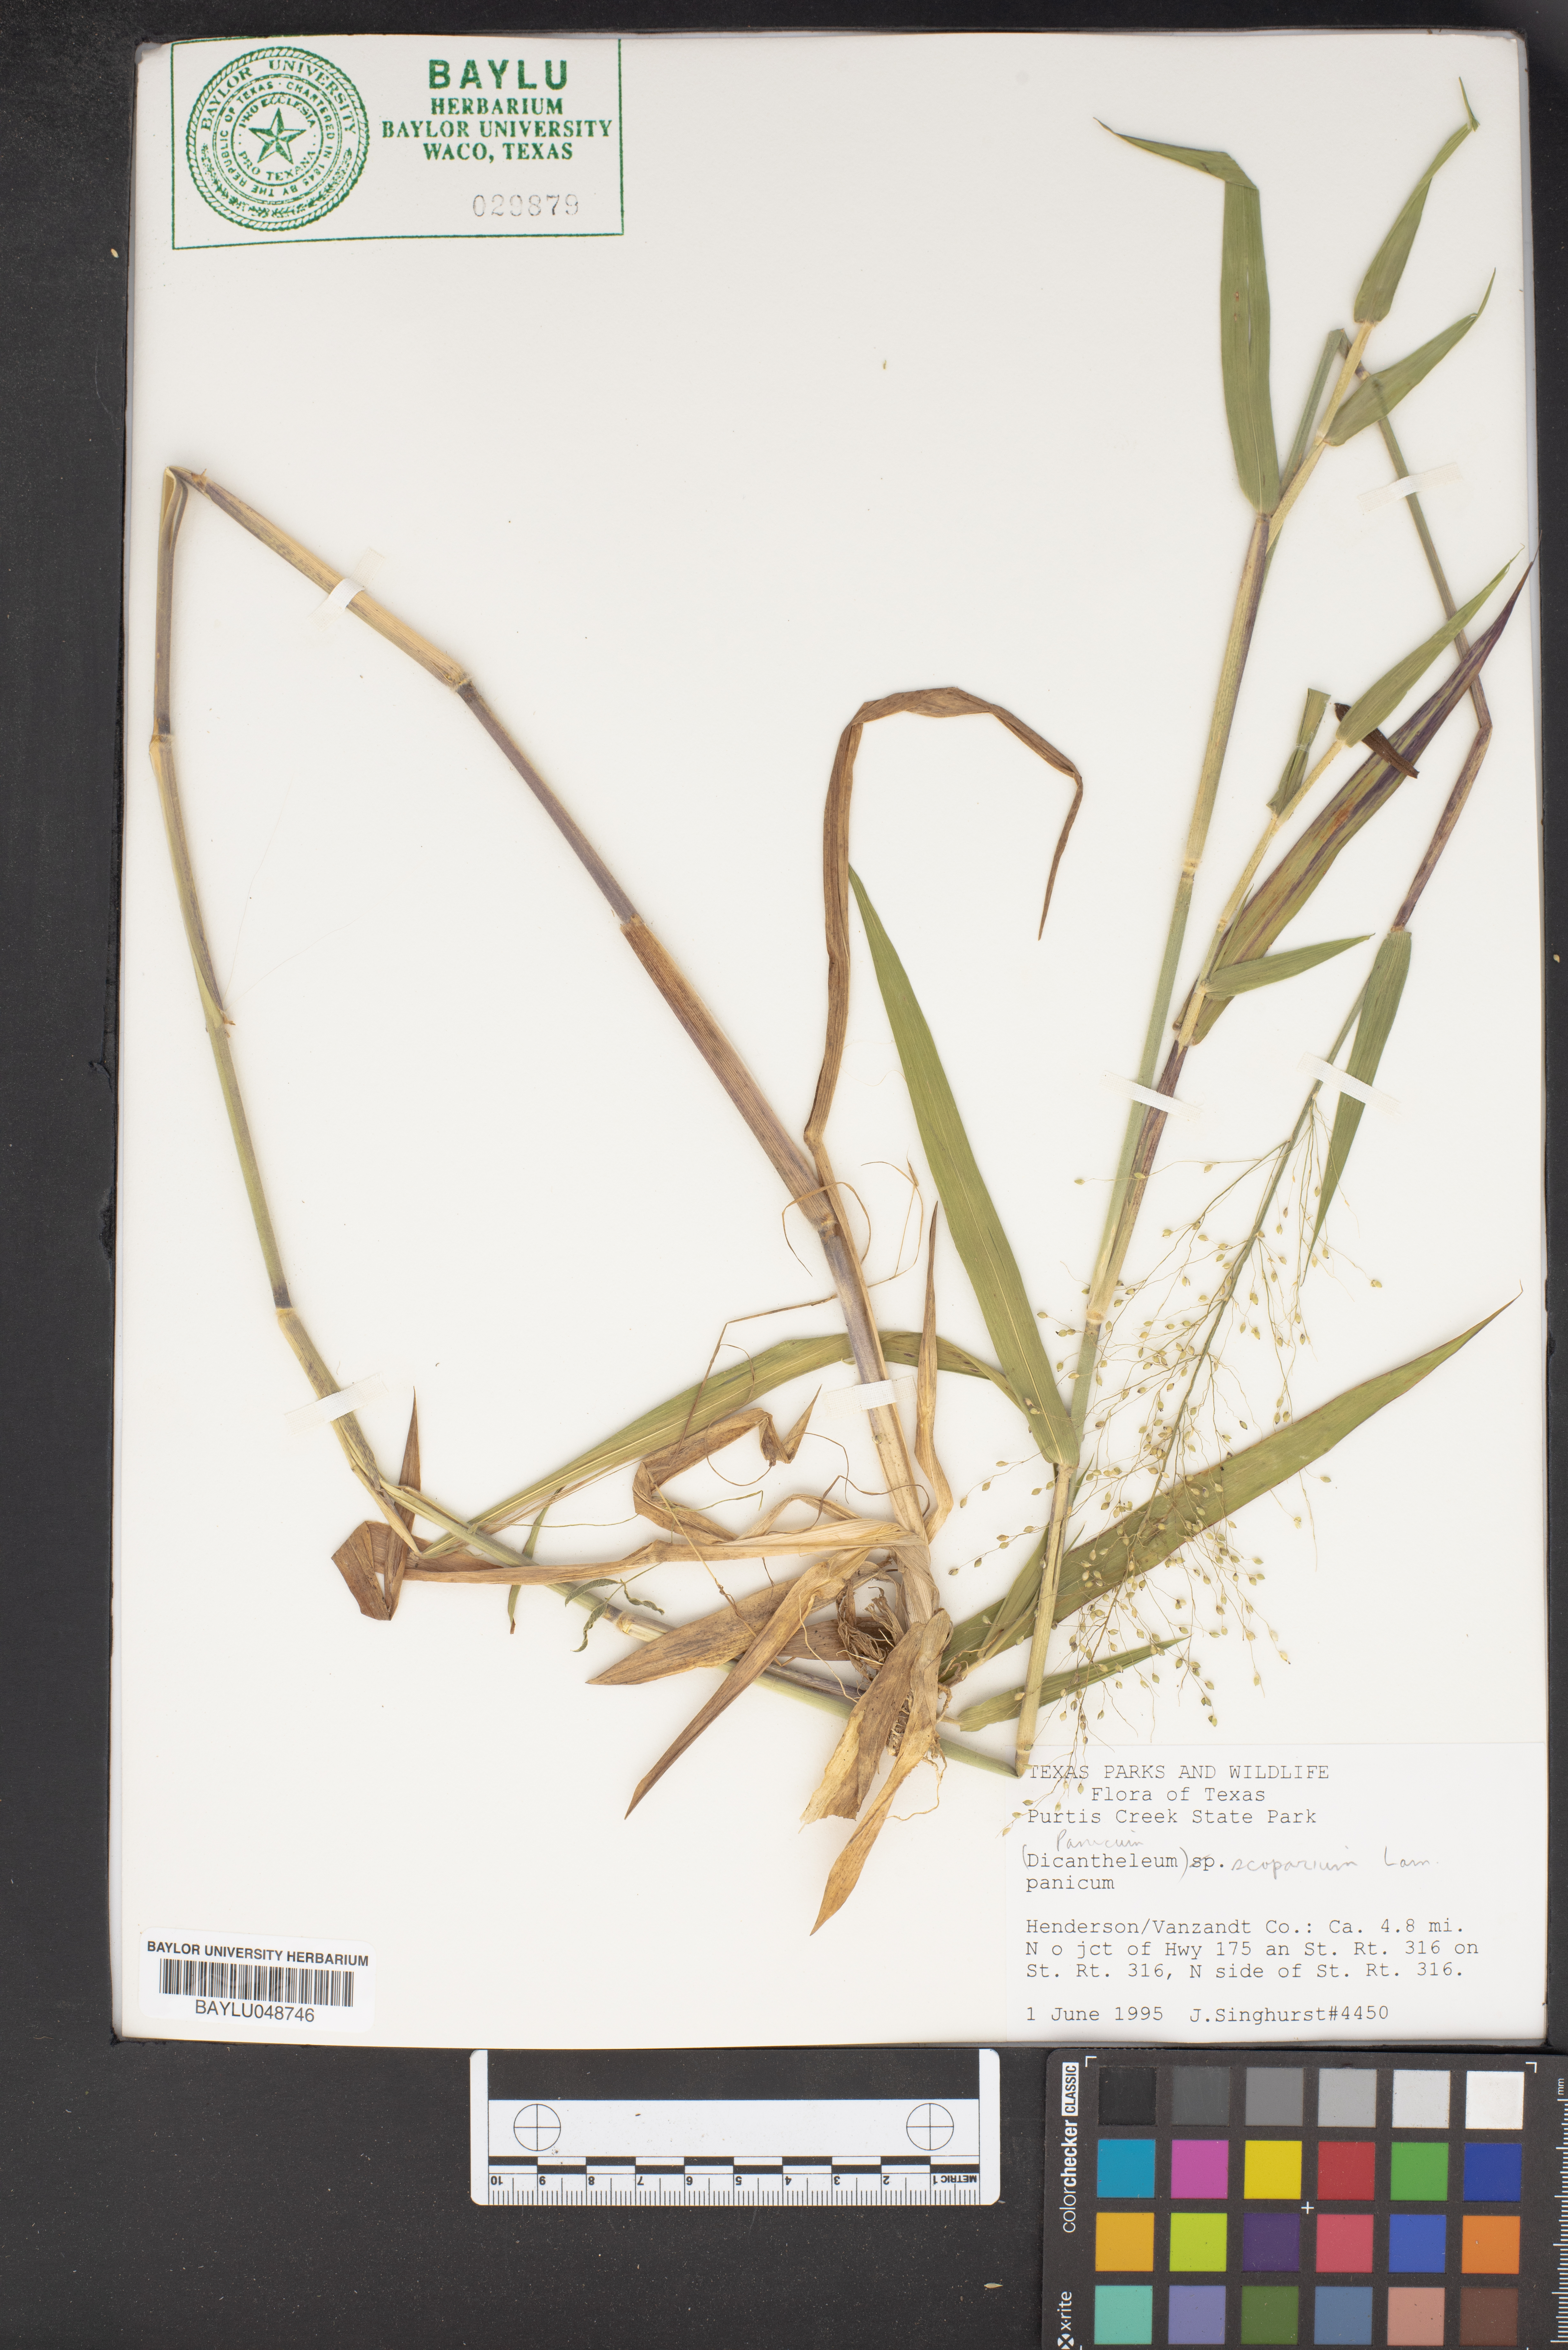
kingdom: Plantae
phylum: Tracheophyta
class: Liliopsida
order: Poales
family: Poaceae
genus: Dichanthelium
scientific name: Dichanthelium scoparium
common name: Velvety panic grass
